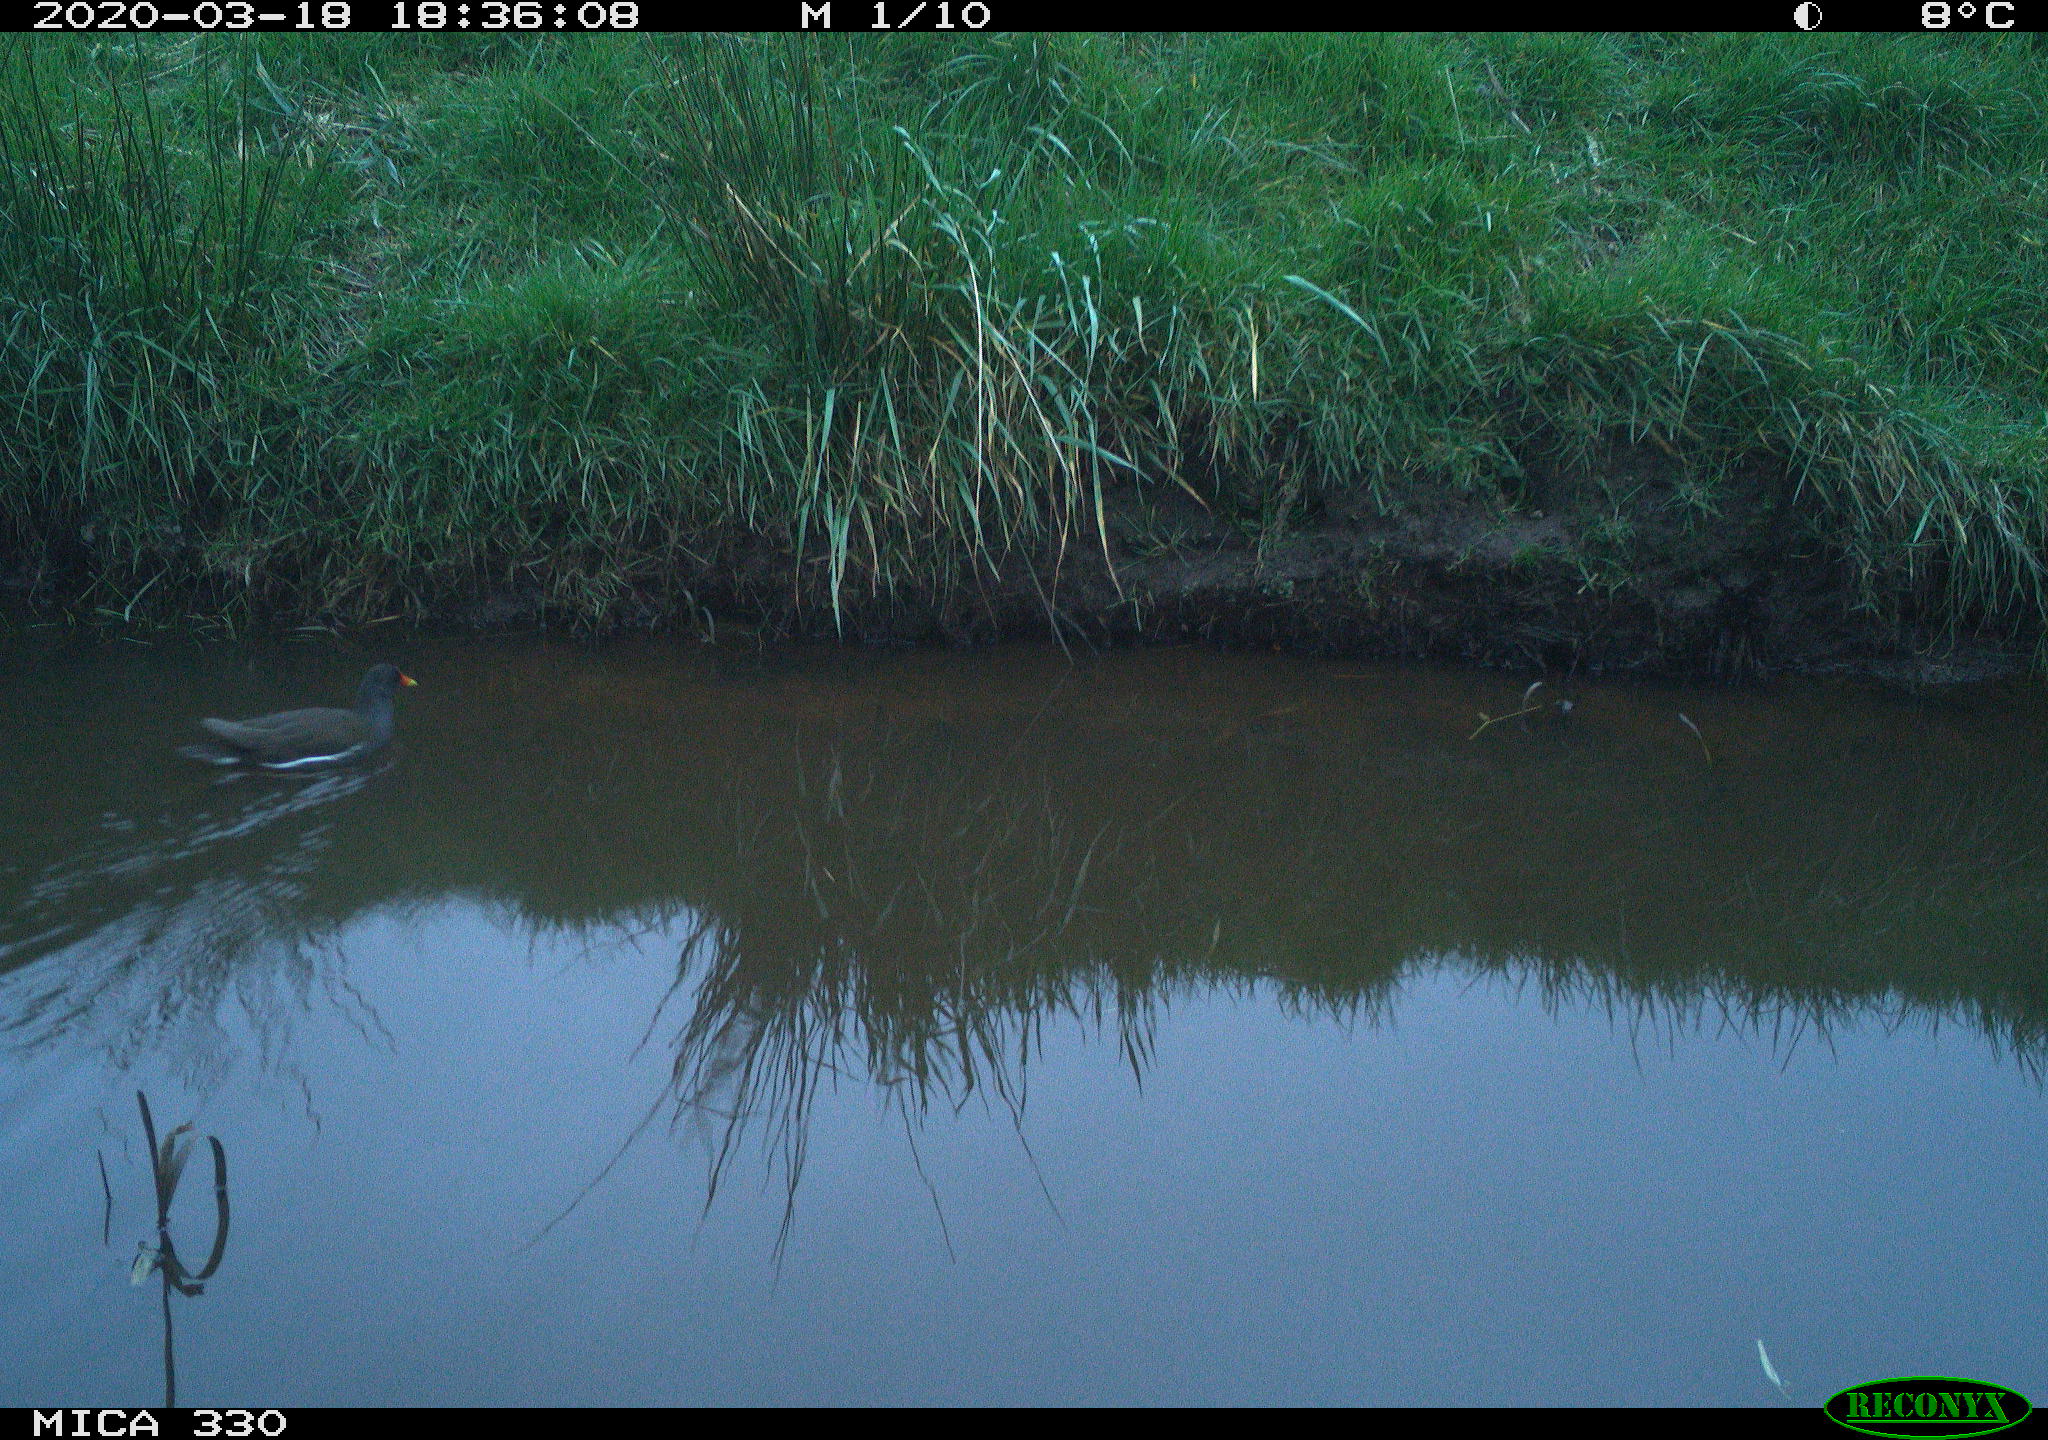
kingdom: Animalia
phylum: Chordata
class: Aves
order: Gruiformes
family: Rallidae
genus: Gallinula
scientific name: Gallinula chloropus
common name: Common moorhen
